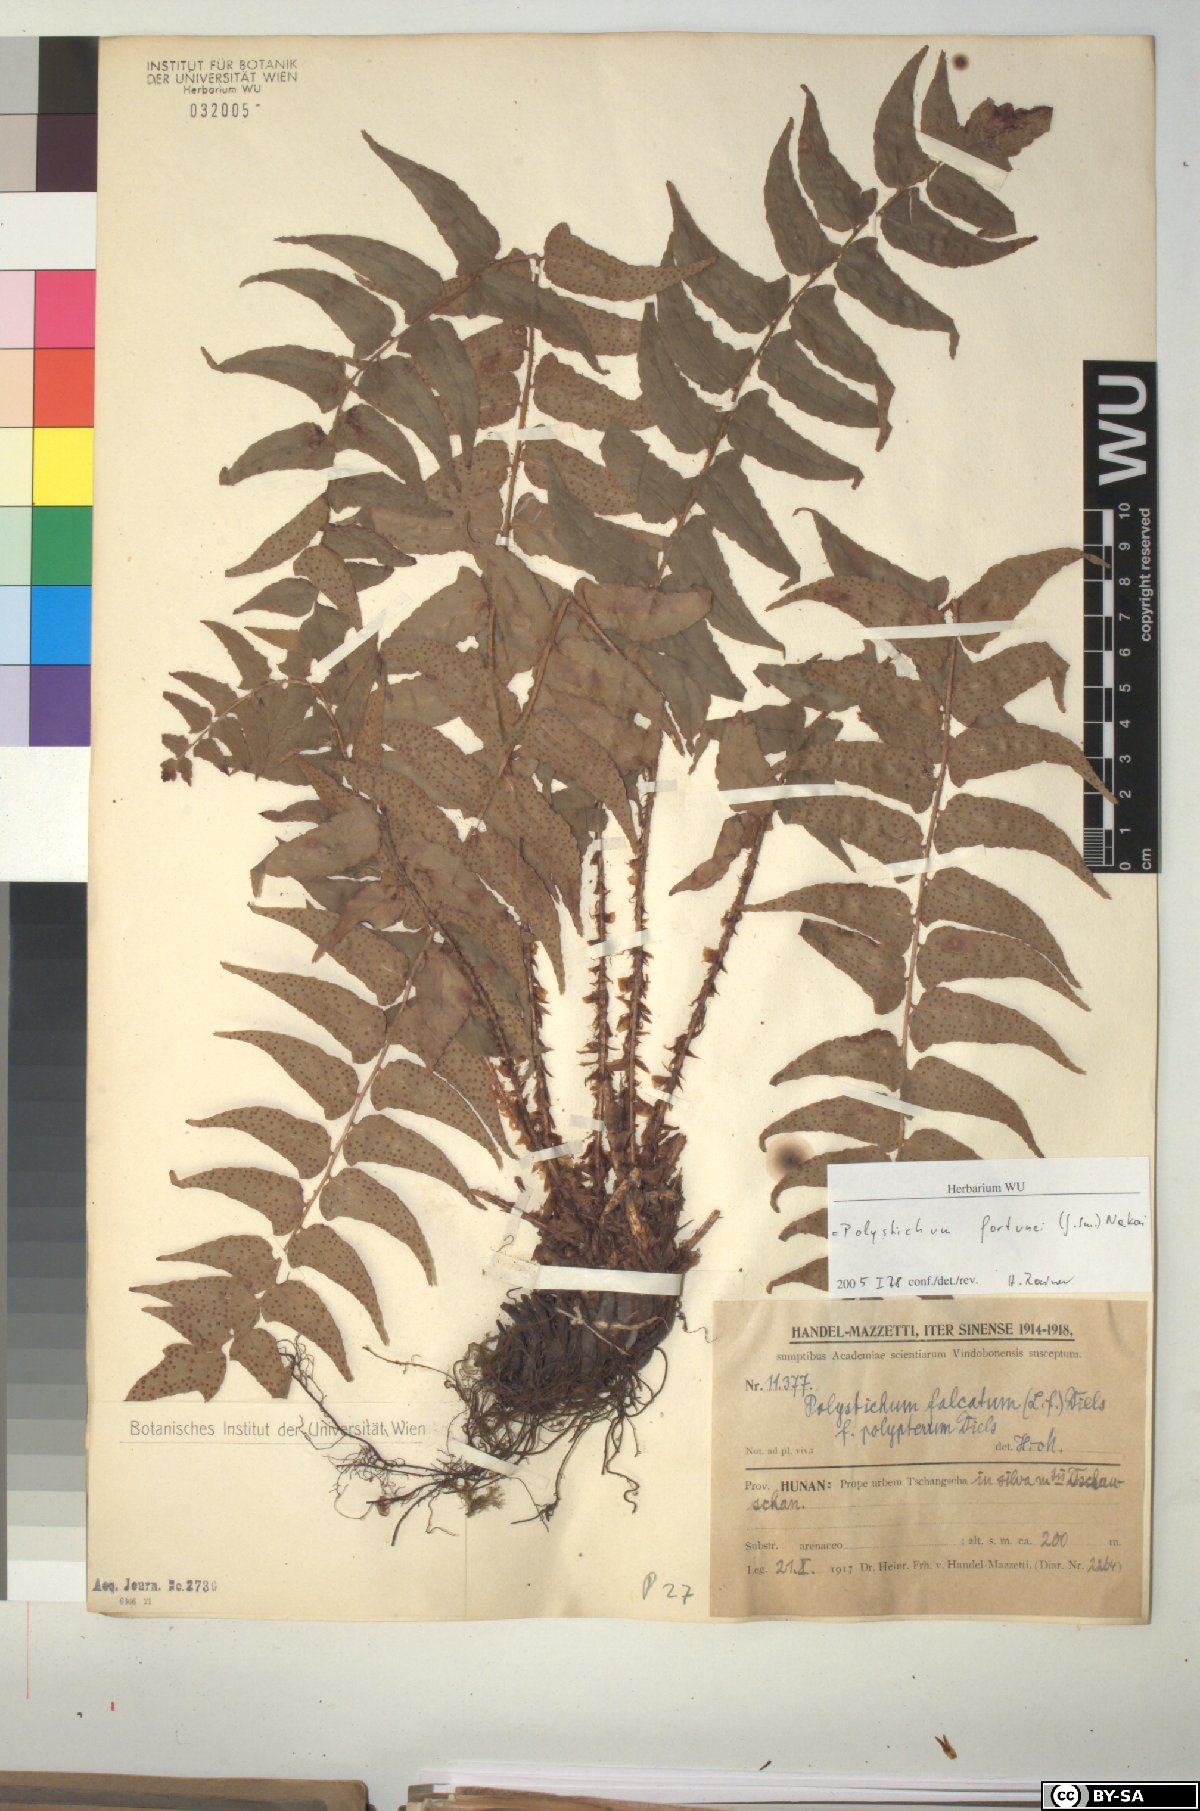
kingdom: Plantae
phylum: Tracheophyta
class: Polypodiopsida
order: Polypodiales
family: Dryopteridaceae
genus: Cyrtomium
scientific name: Cyrtomium fortunei
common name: Asian netvein hollyfern
